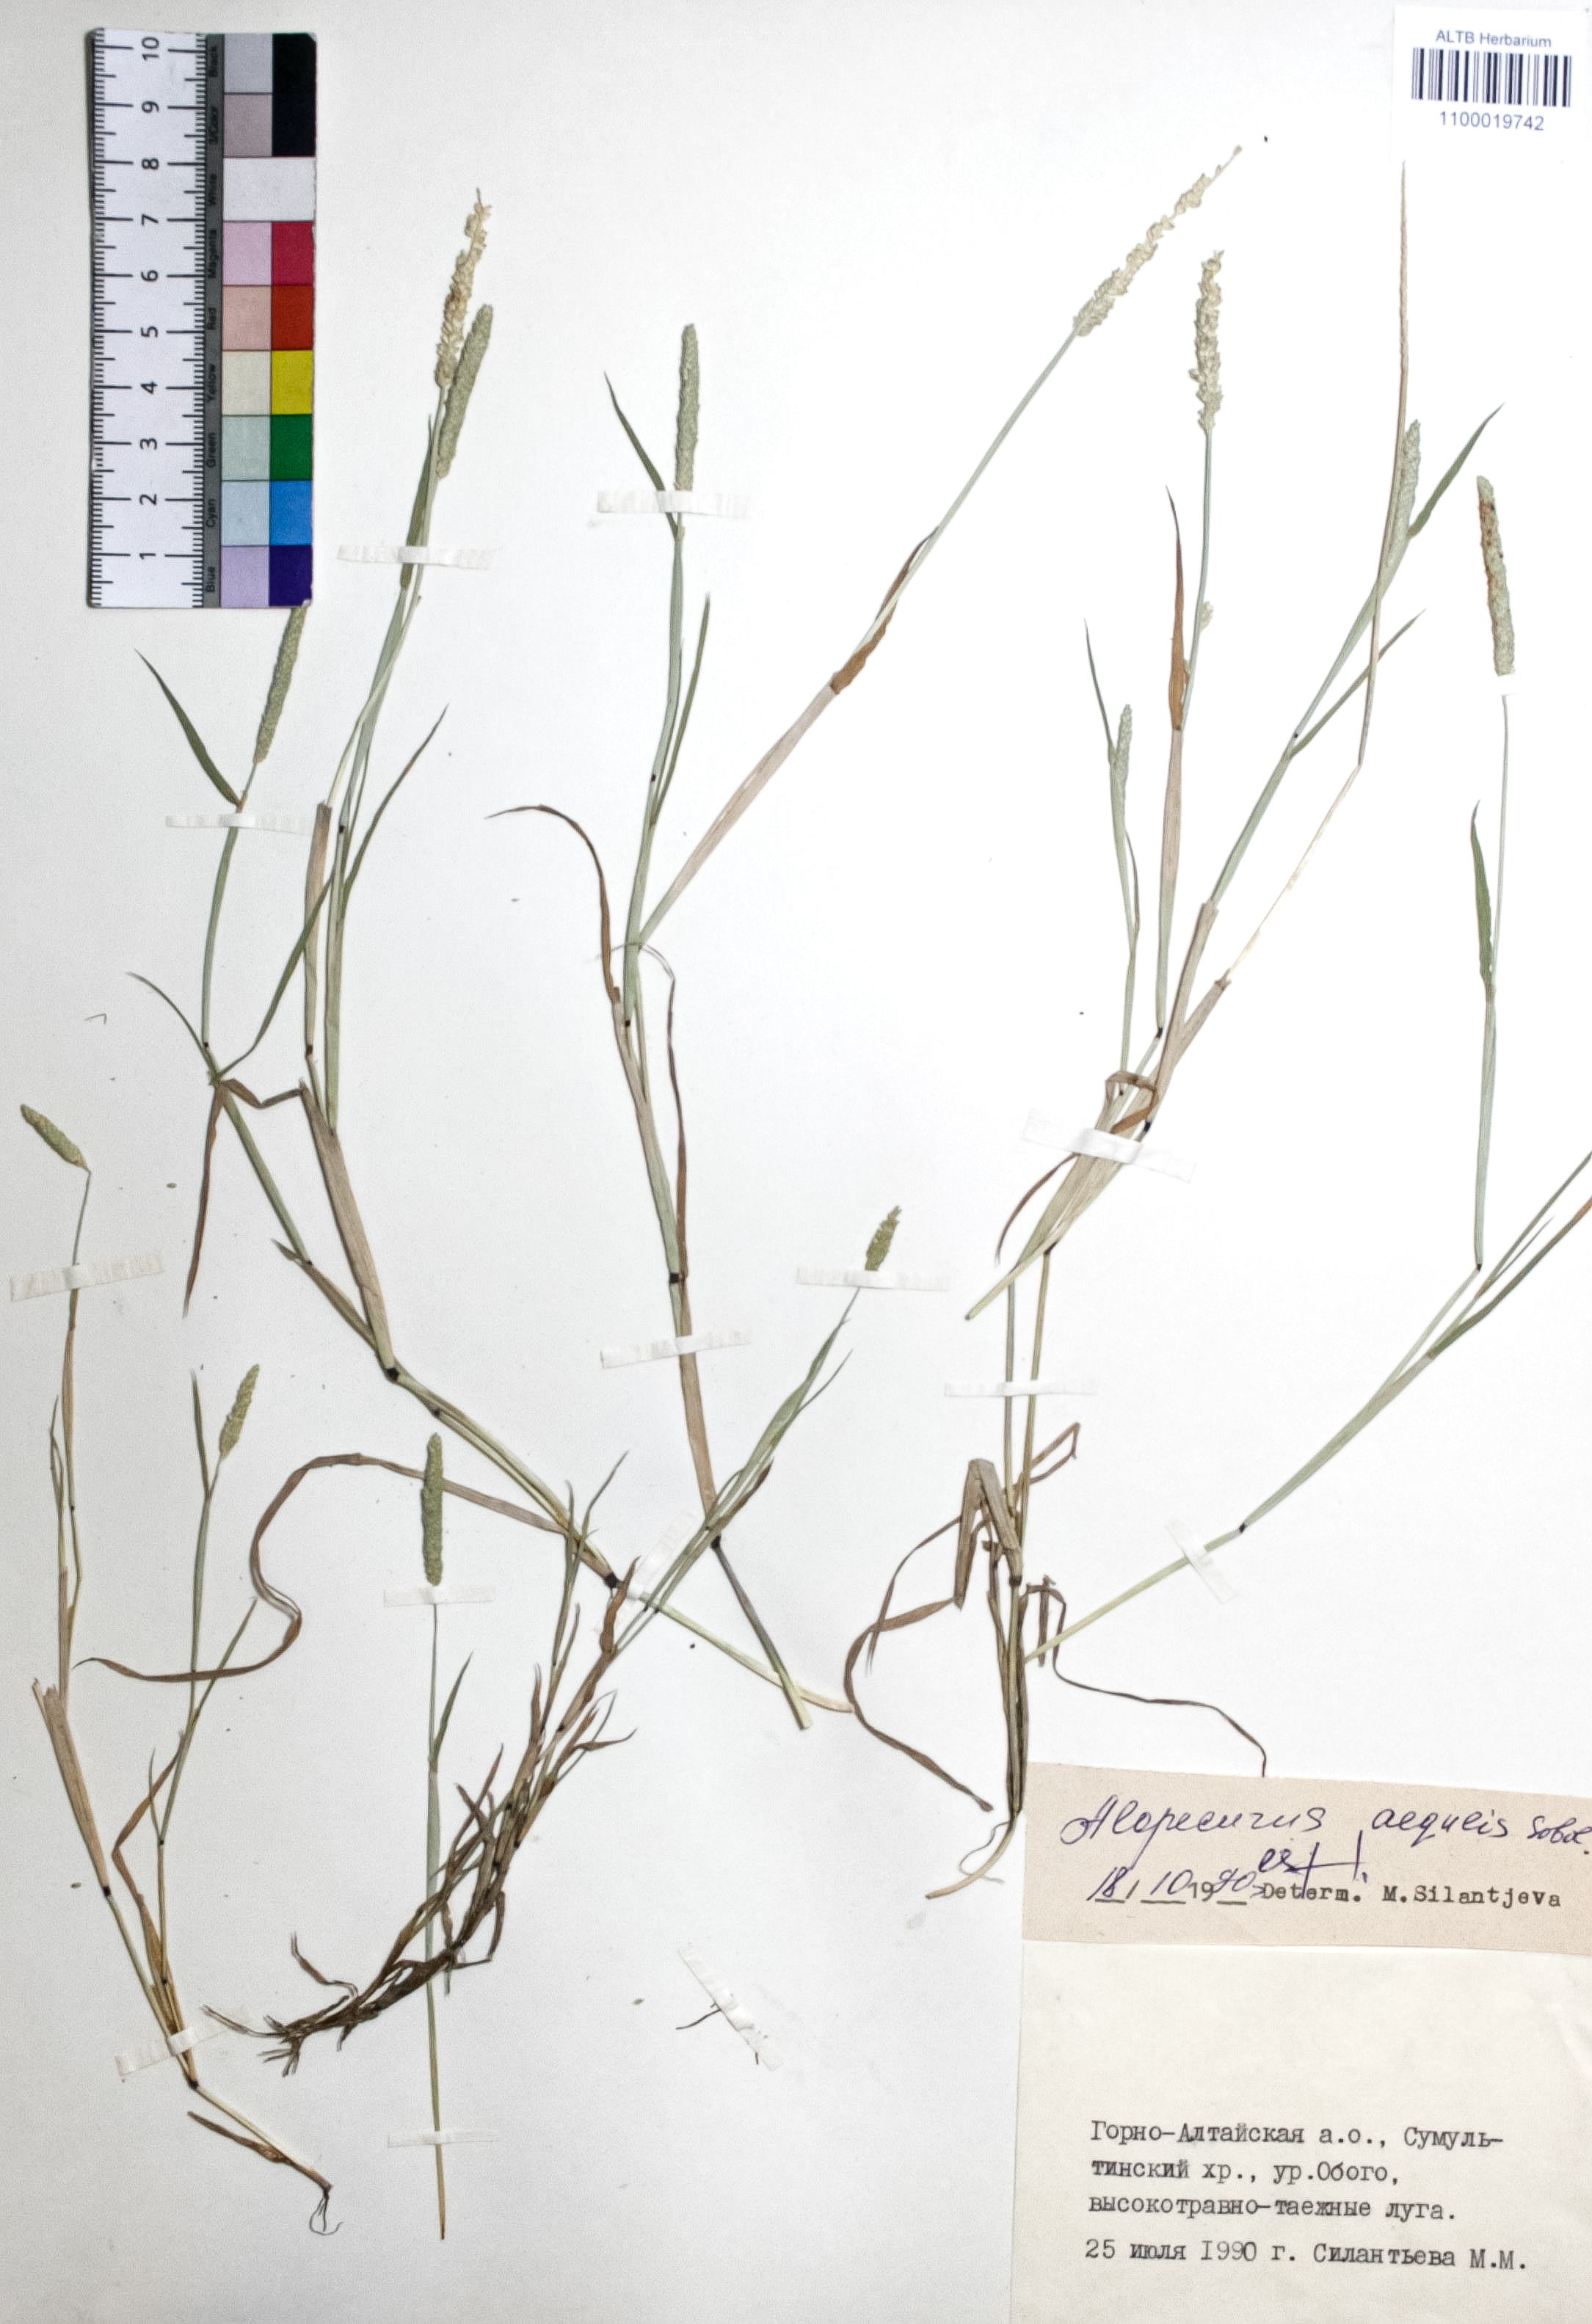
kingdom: Plantae
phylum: Tracheophyta
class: Liliopsida
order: Poales
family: Poaceae
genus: Alopecurus
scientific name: Alopecurus aequalis
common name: Orange foxtail
